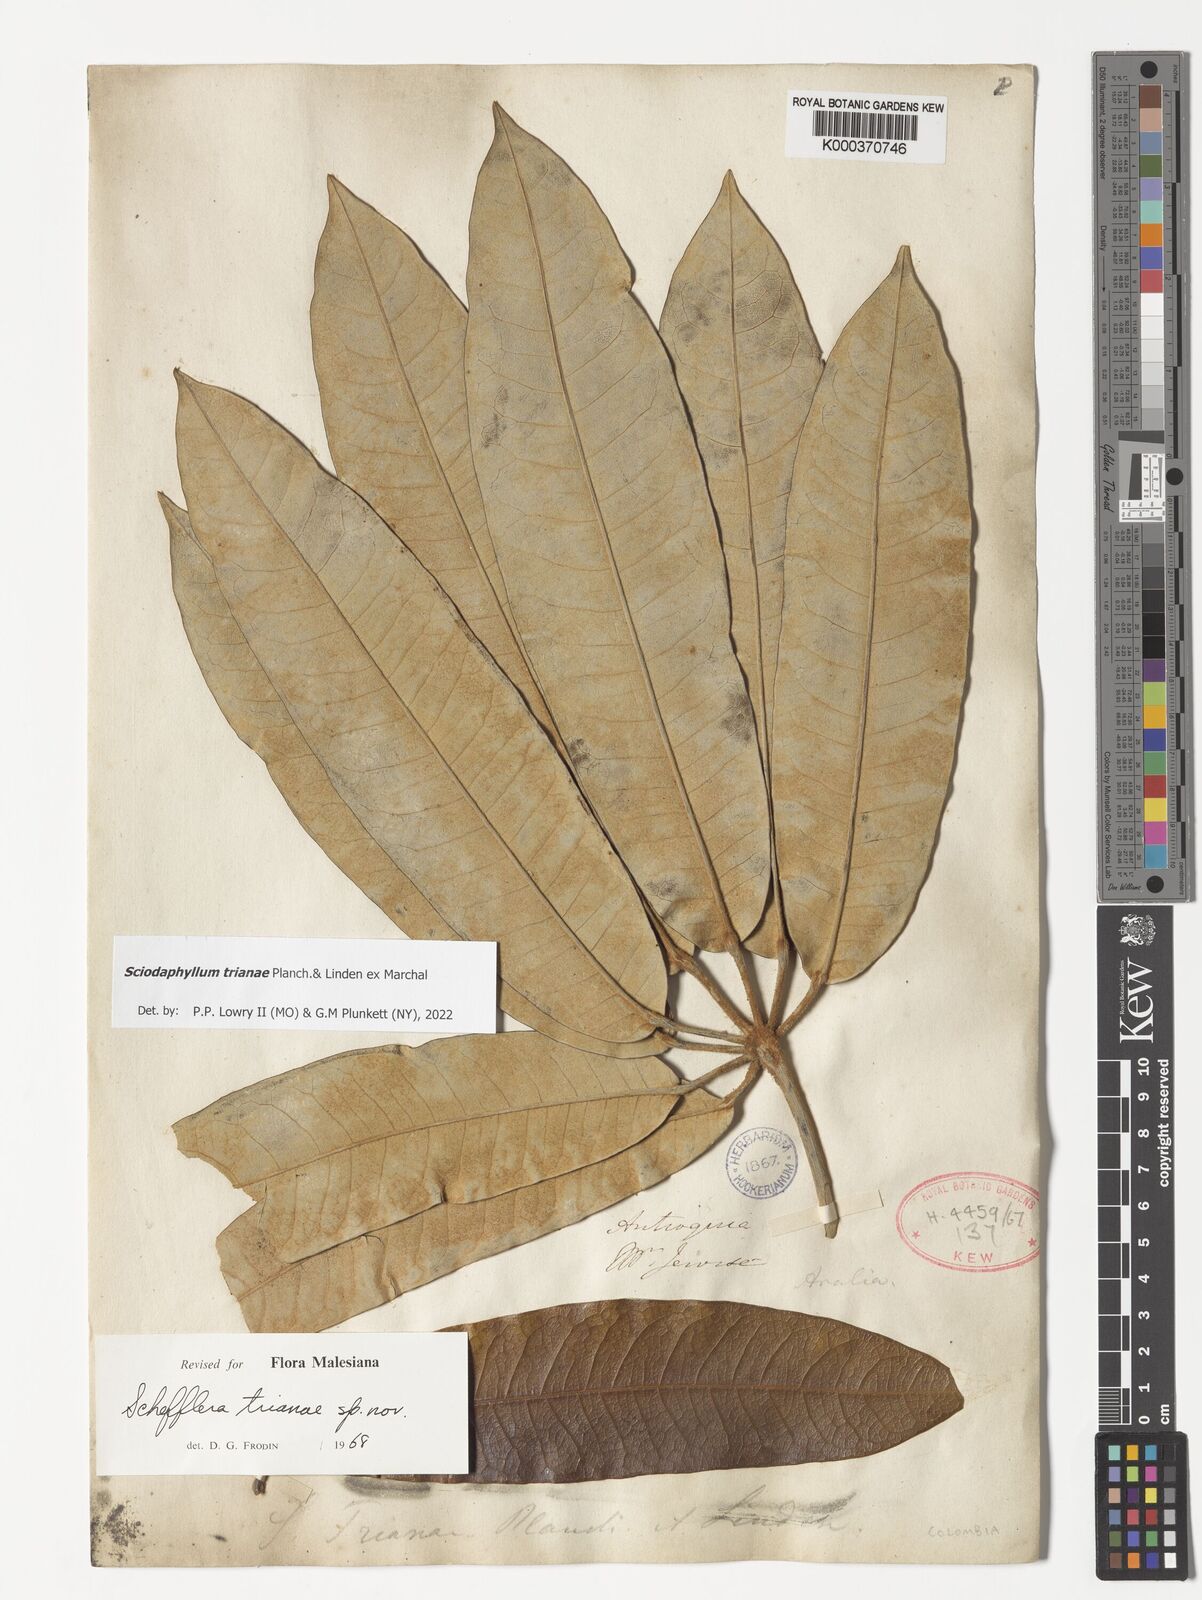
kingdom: Plantae
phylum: Tracheophyta
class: Magnoliopsida
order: Apiales
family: Araliaceae
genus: Sciodaphyllum
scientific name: Sciodaphyllum trianae
